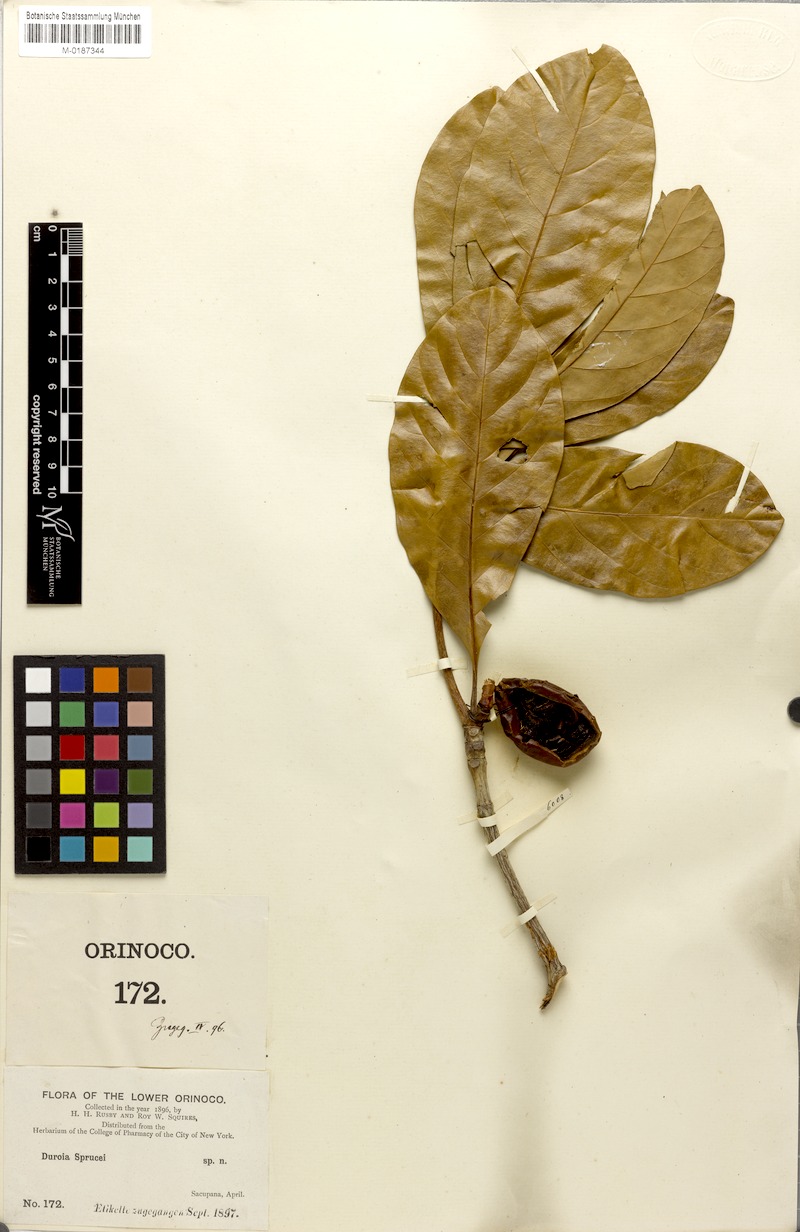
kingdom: Plantae
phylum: Tracheophyta
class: Magnoliopsida
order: Gentianales
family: Rubiaceae
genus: Duroia
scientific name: Duroia micrantha
